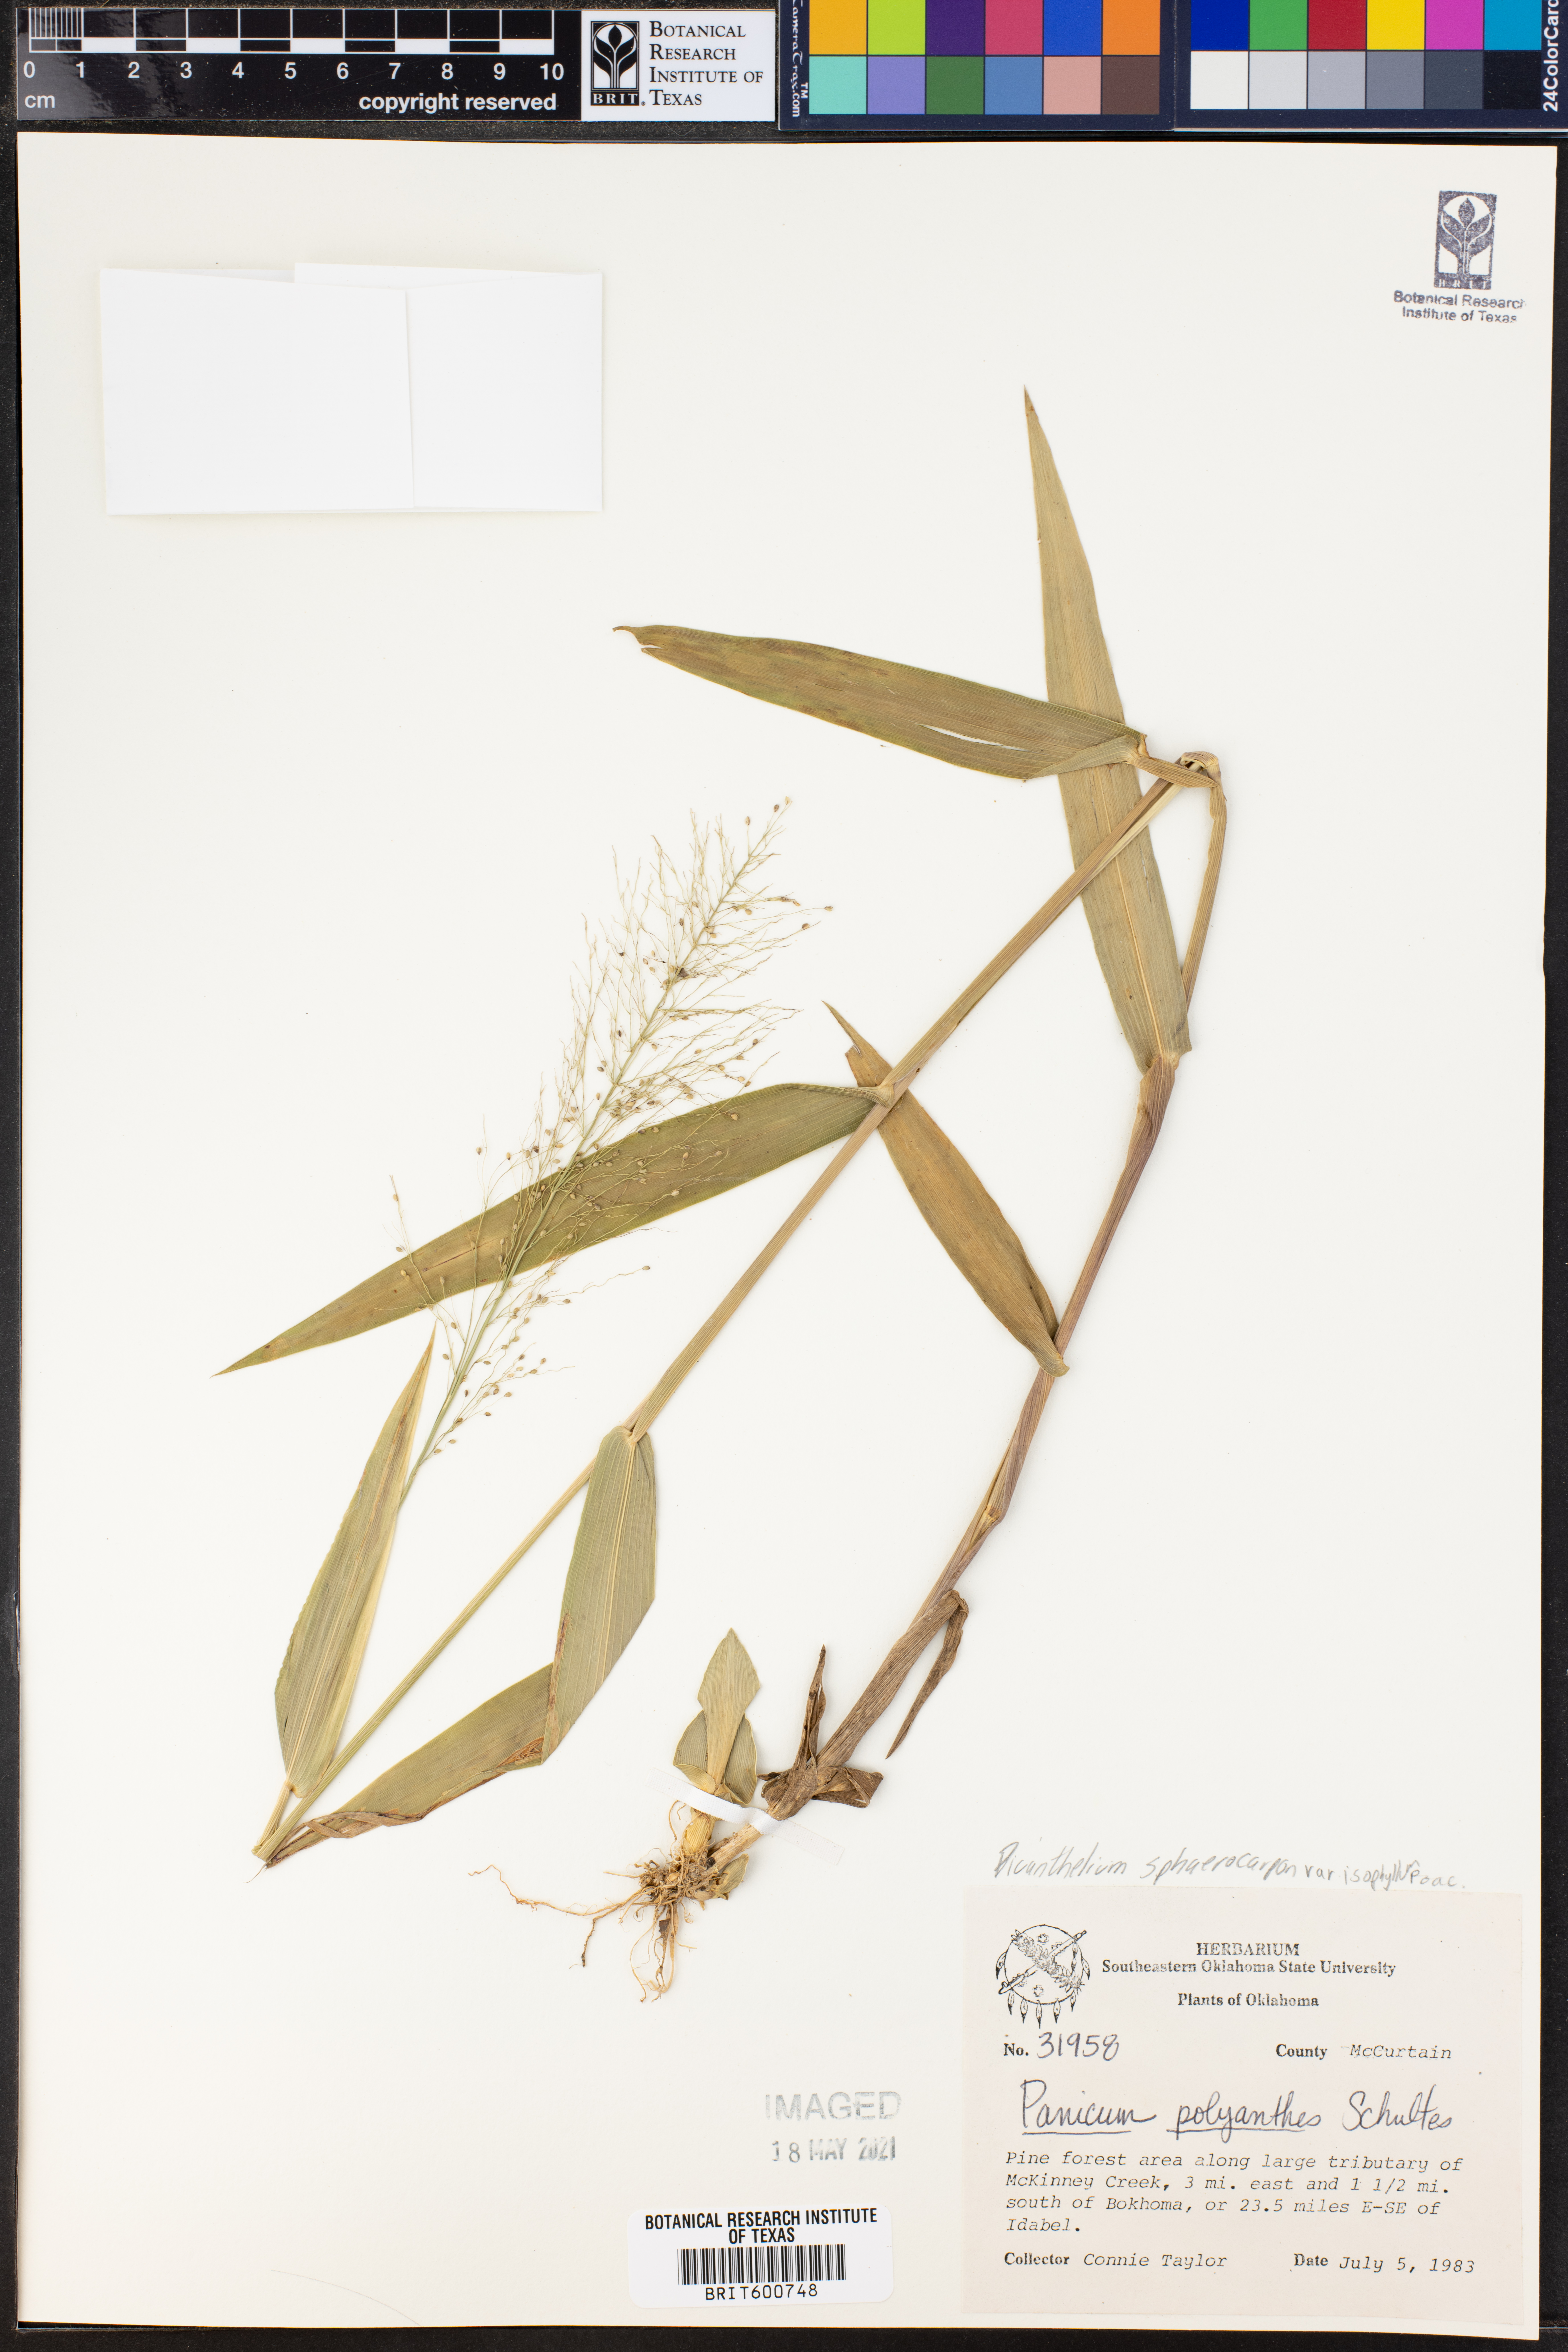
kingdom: Plantae
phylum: Tracheophyta
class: Liliopsida
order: Poales
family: Poaceae
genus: Dichanthelium
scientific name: Dichanthelium polyanthes
